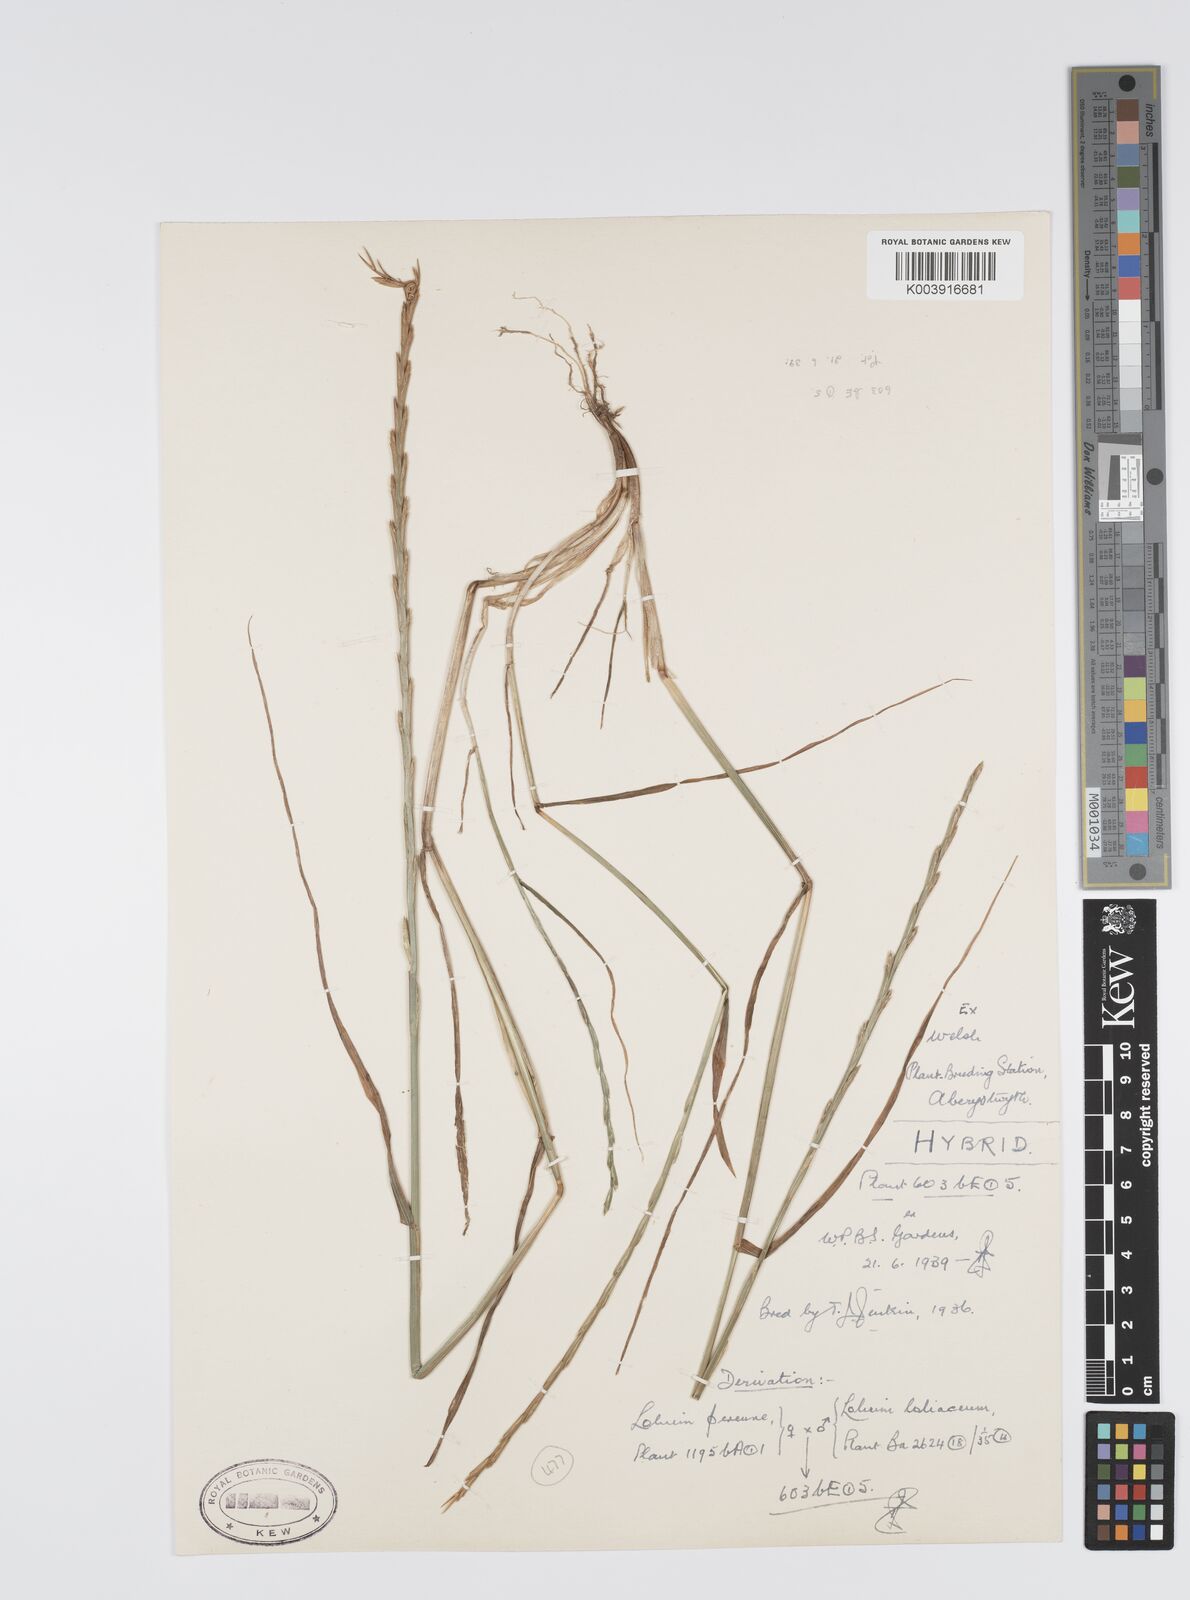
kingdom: Plantae
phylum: Tracheophyta
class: Liliopsida
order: Poales
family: Poaceae
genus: Lolium
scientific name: Lolium perenne
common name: Perennial ryegrass
